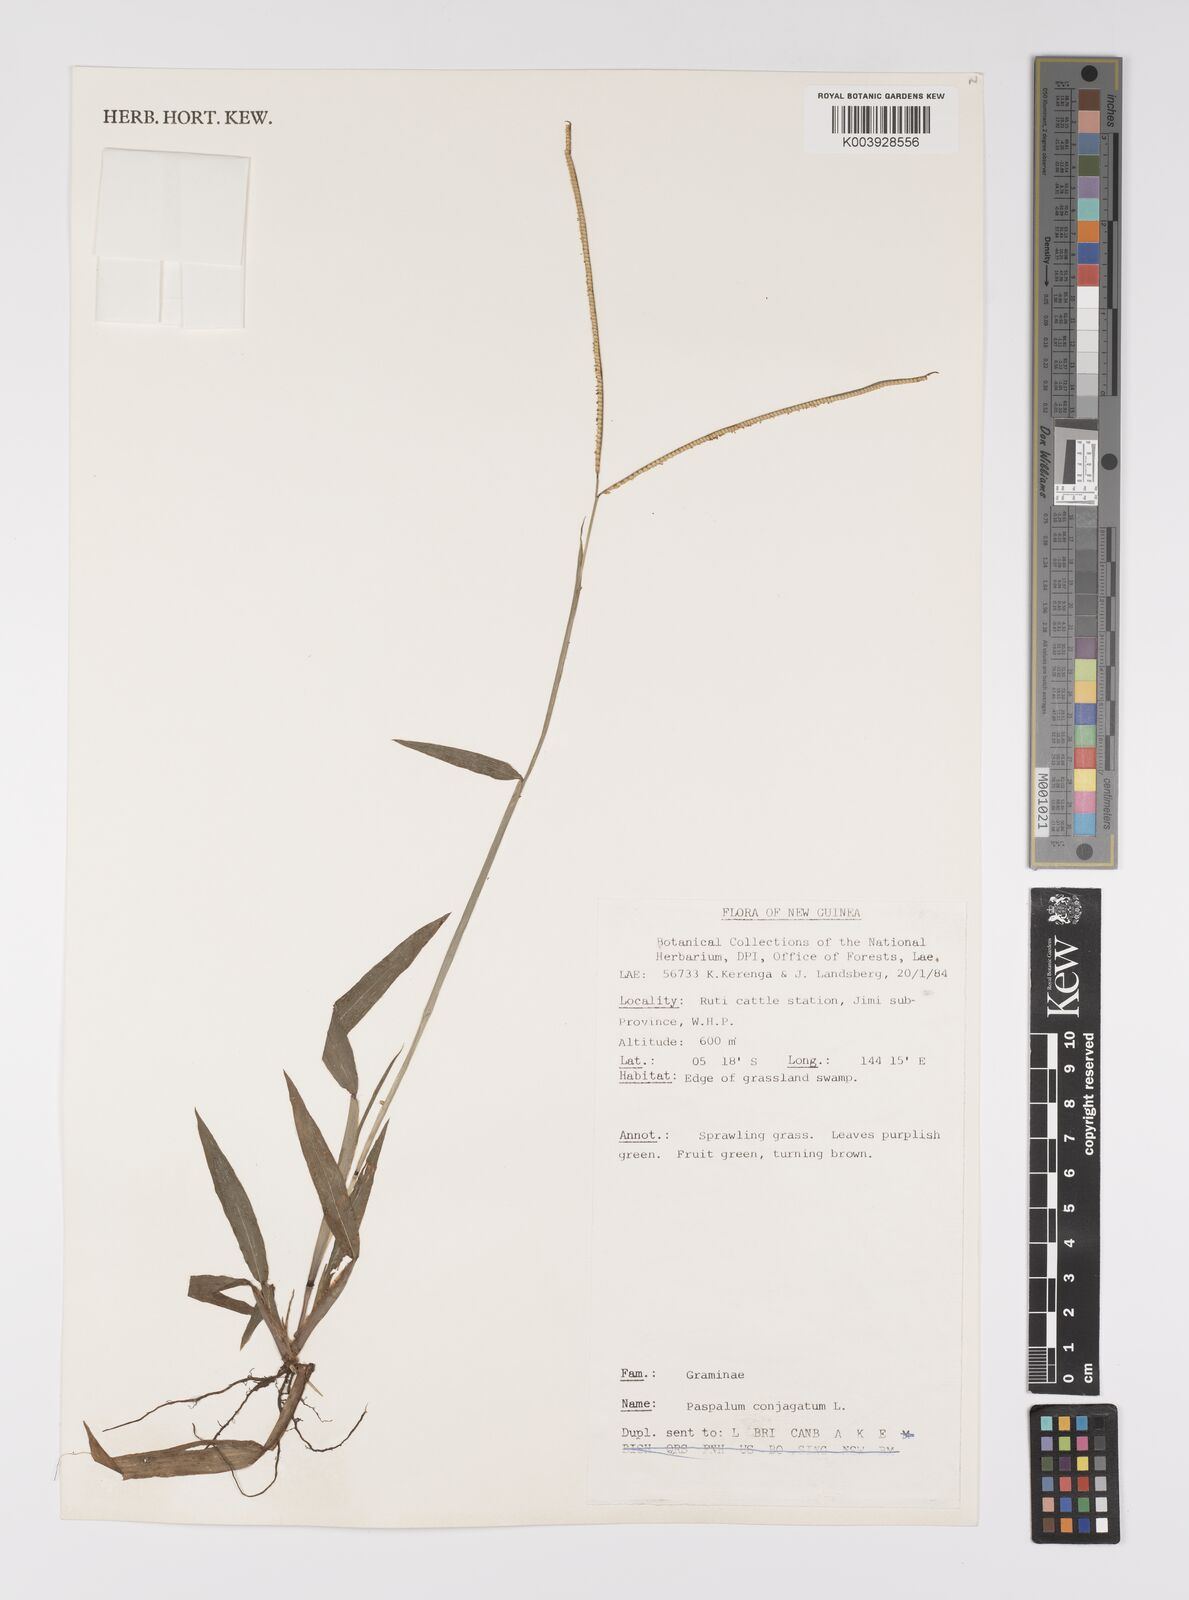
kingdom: Plantae
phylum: Tracheophyta
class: Liliopsida
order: Poales
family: Poaceae
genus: Paspalum
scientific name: Paspalum conjugatum
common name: Hilograss
